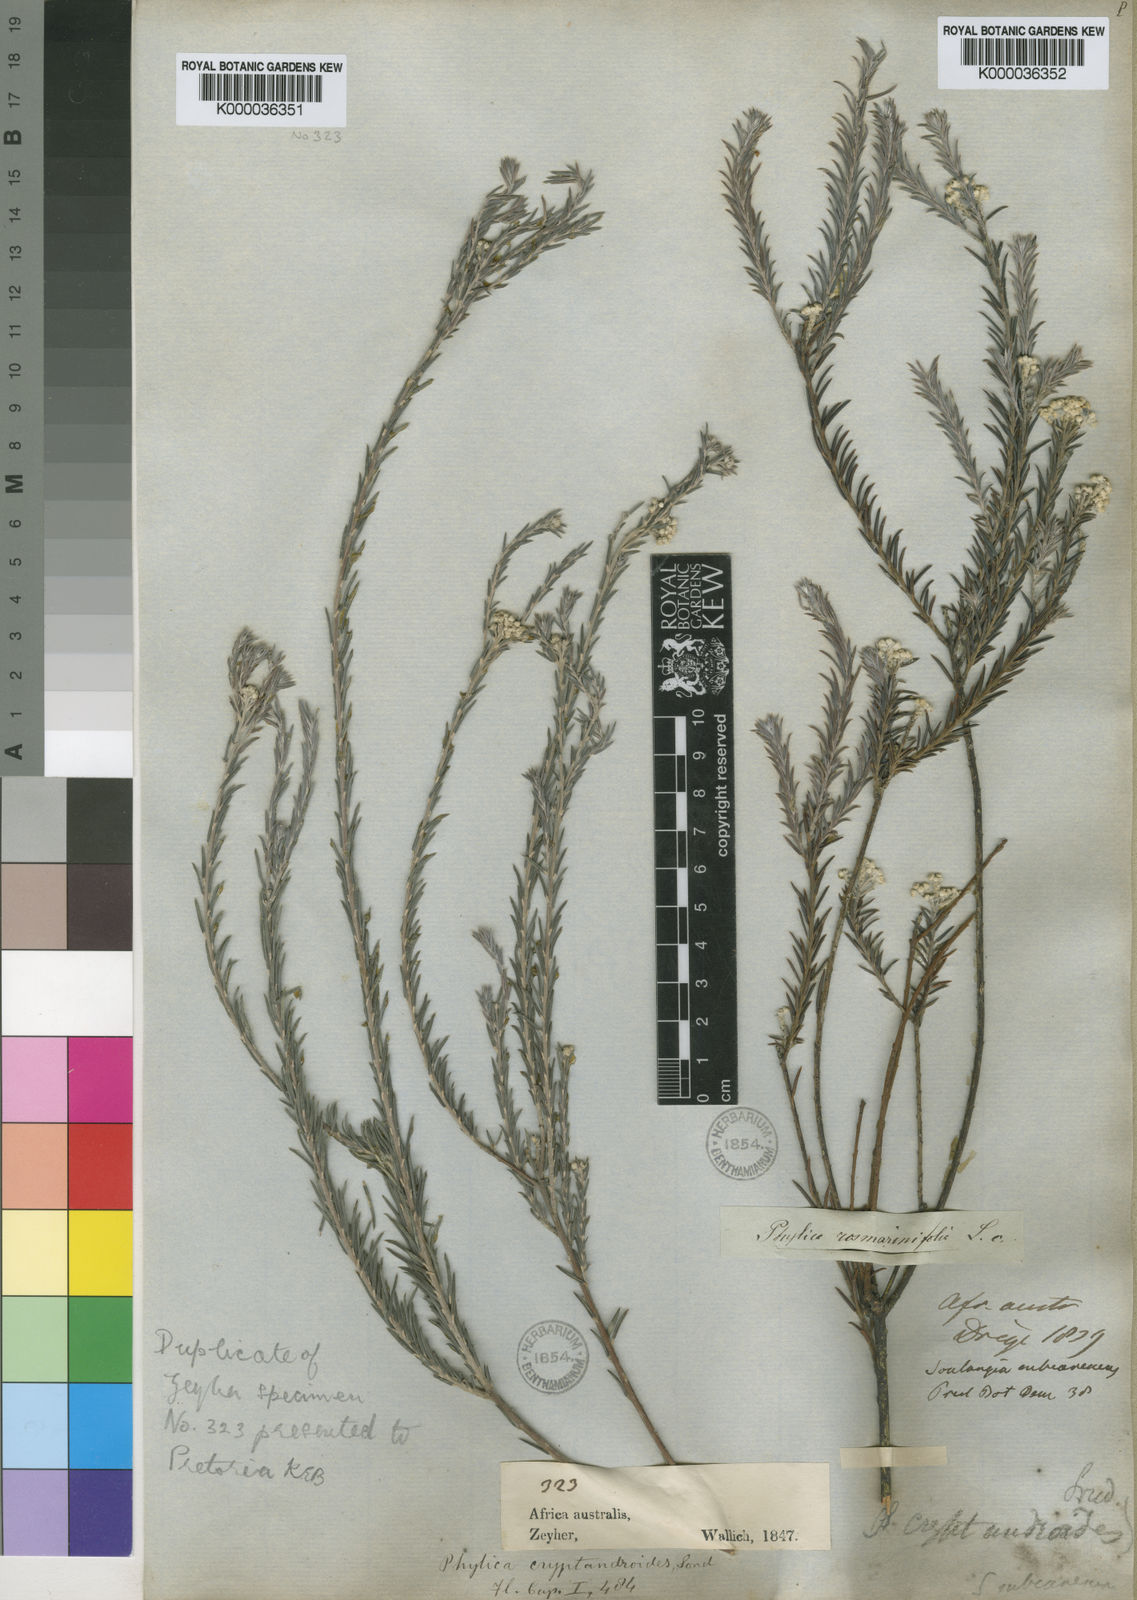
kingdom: Plantae
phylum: Tracheophyta
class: Magnoliopsida
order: Rosales
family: Rhamnaceae
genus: Phylica
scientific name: Phylica cryptandroides
